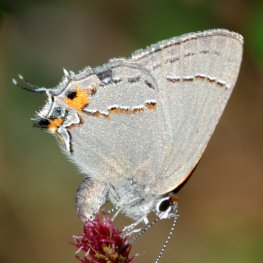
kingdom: Animalia
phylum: Arthropoda
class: Insecta
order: Lepidoptera
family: Lycaenidae
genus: Strymon
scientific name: Strymon melinus
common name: Gray Hairstreak
